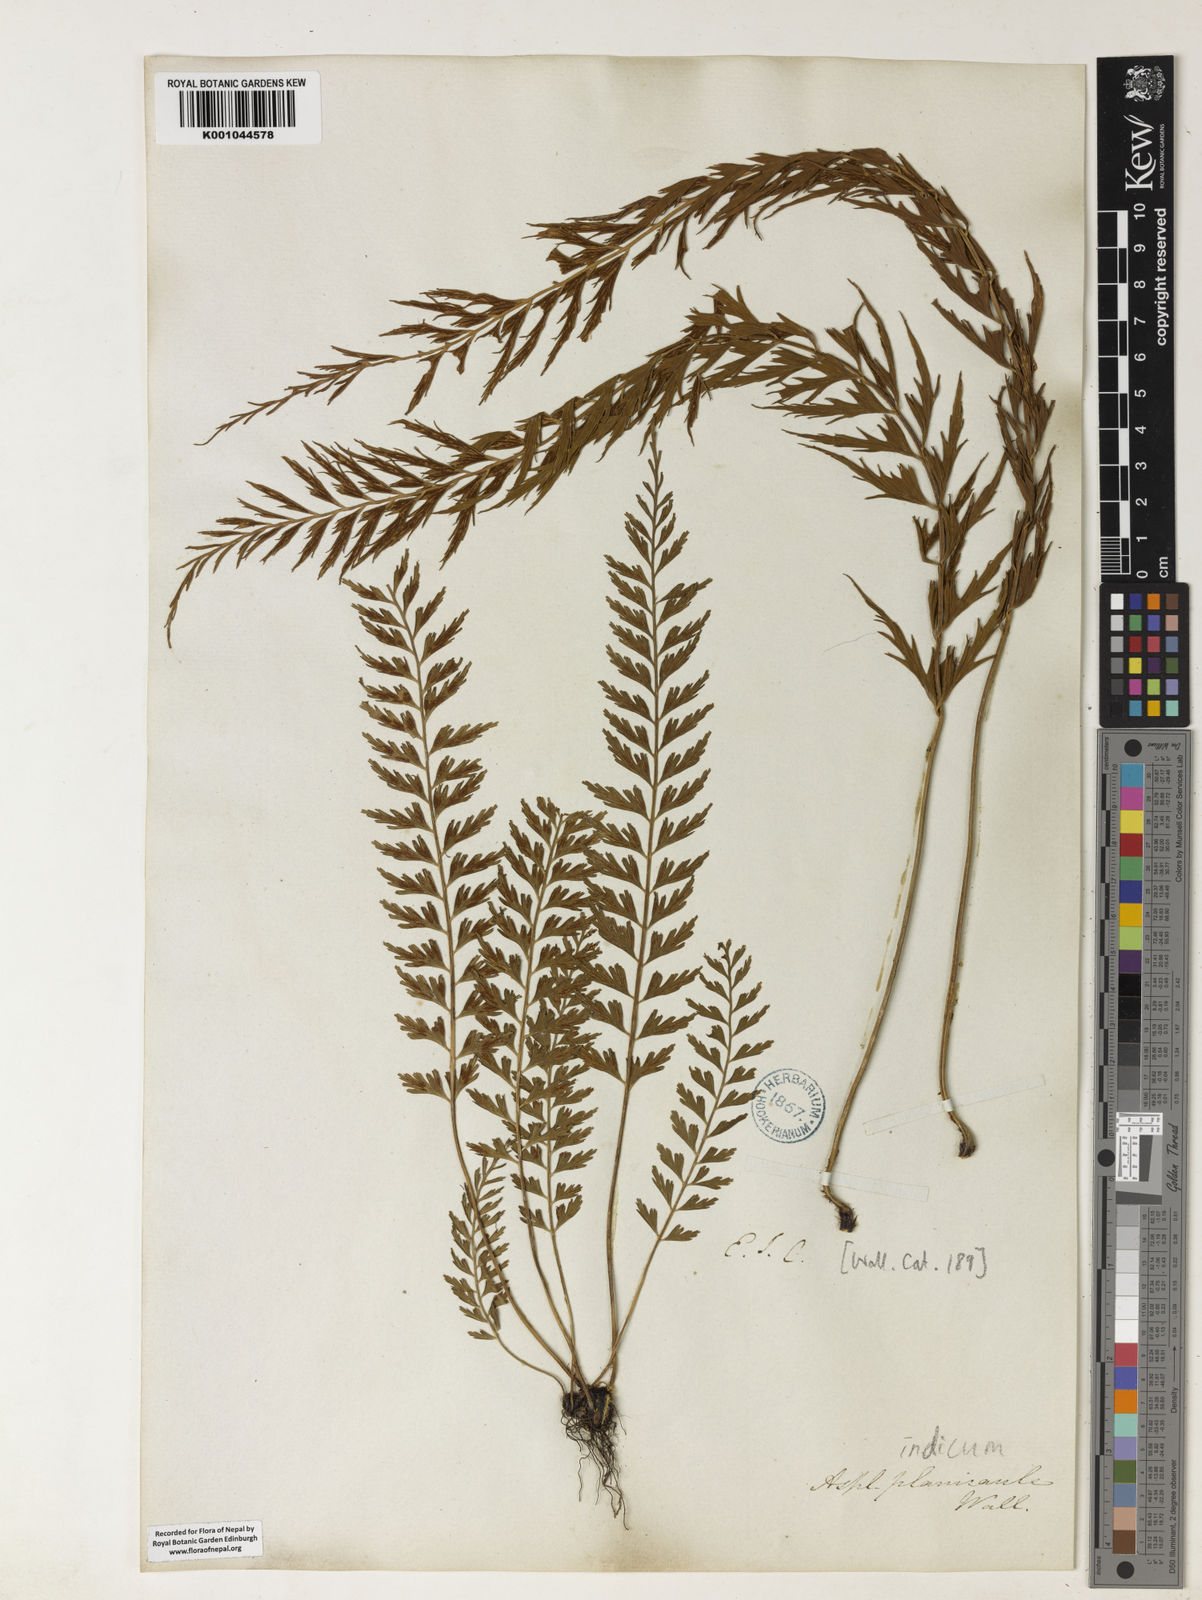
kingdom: Plantae
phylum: Tracheophyta
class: Polypodiopsida
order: Polypodiales
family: Aspleniaceae
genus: Asplenium
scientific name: Asplenium yoshinagae
